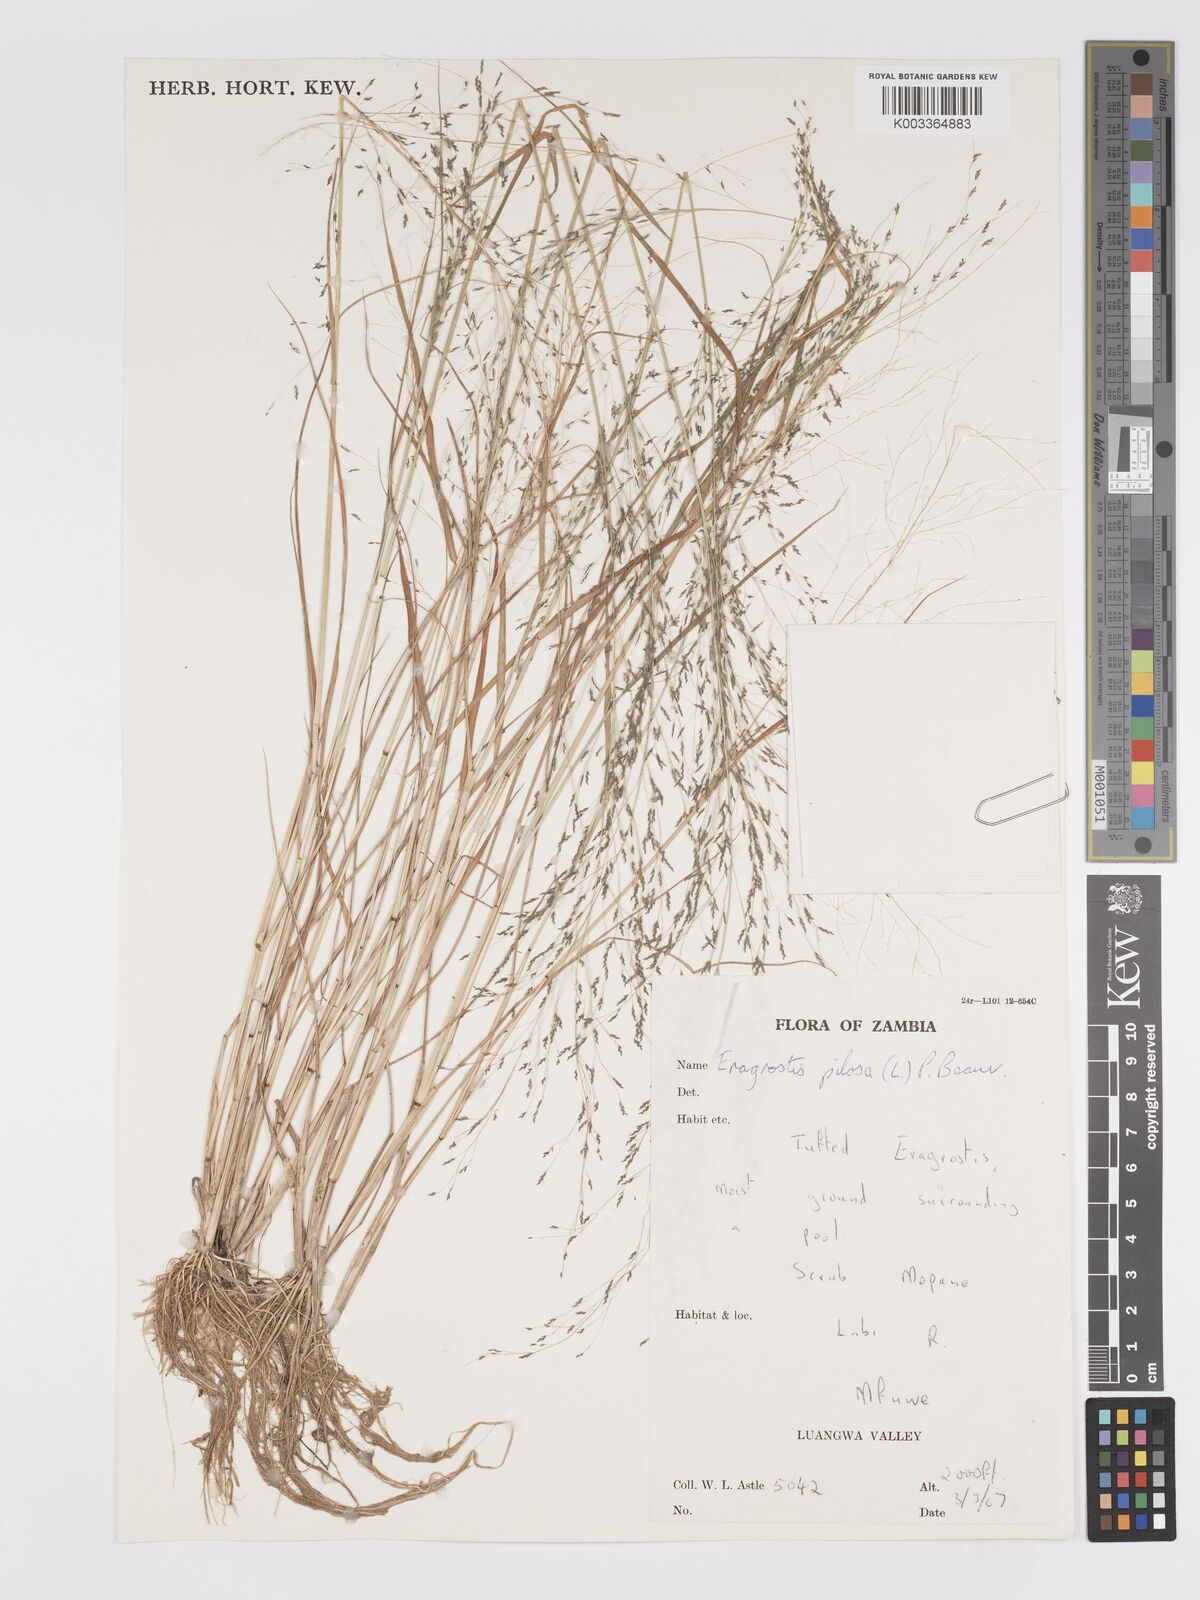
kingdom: Plantae
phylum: Tracheophyta
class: Liliopsida
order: Poales
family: Poaceae
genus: Eragrostis
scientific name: Eragrostis pilosa
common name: Indian lovegrass
